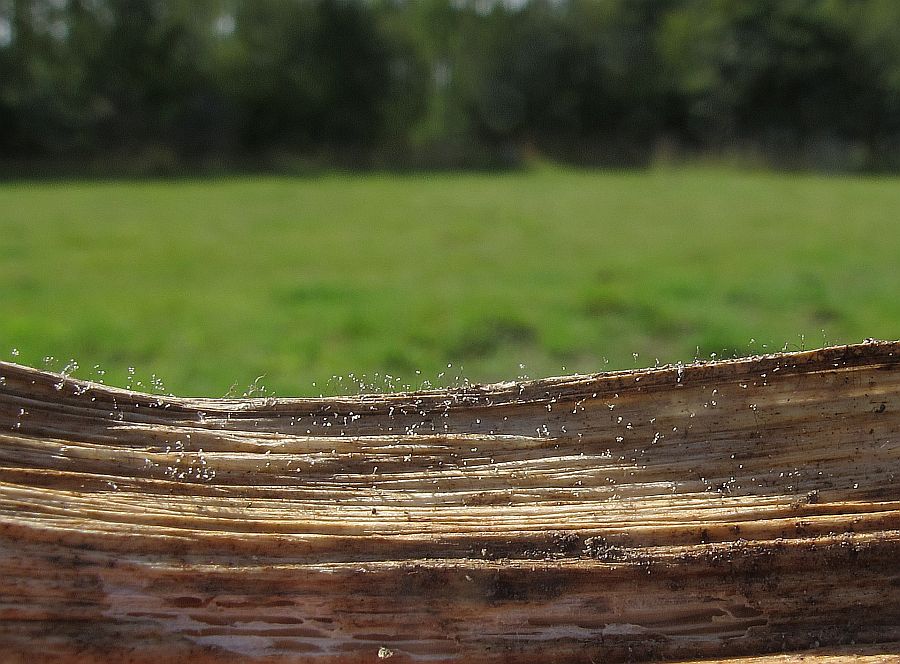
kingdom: Fungi
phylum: Ascomycota
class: Leotiomycetes
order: Helotiales
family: Sclerotiniaceae
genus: Botrytis
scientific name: Botrytis cinerea
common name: Grey mould
